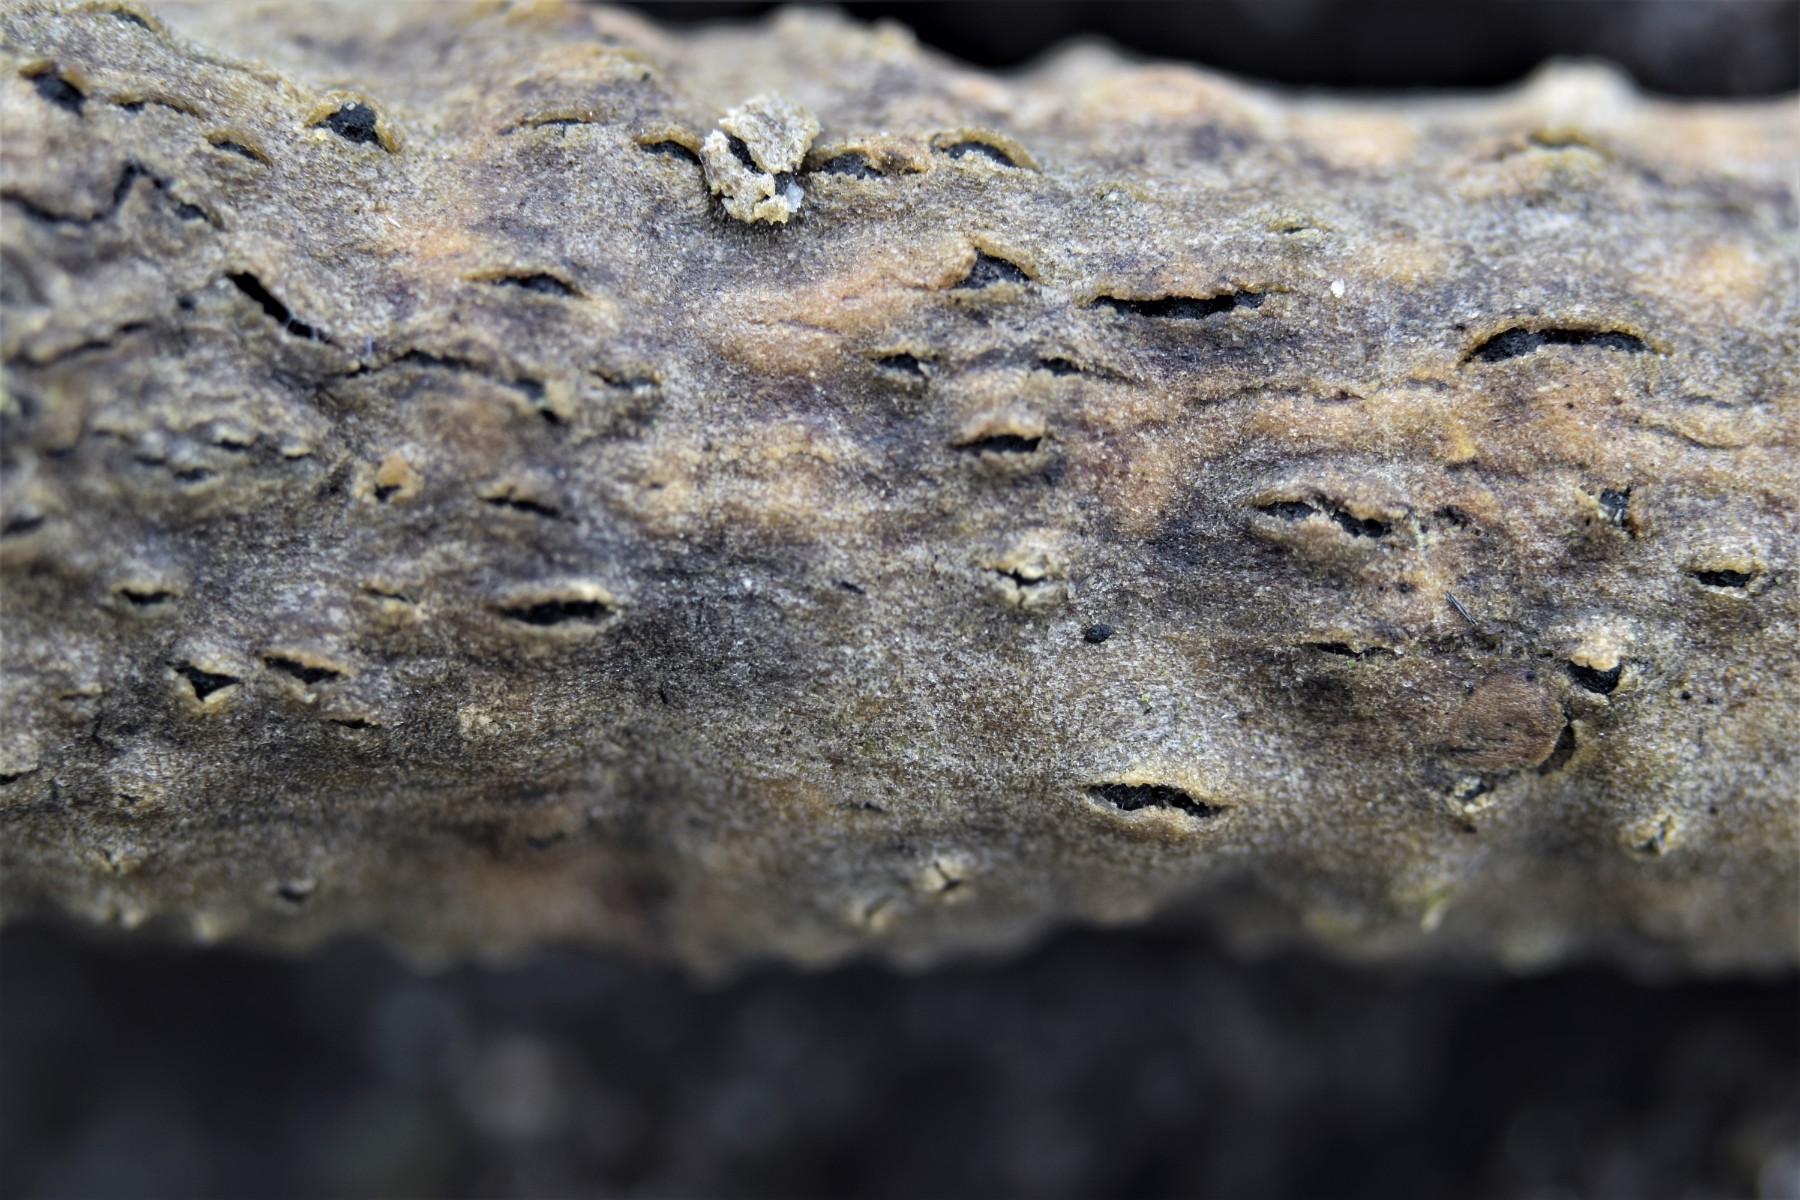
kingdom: Fungi
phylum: Ascomycota
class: Sordariomycetes
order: Diaporthales
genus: Botryodiplodia
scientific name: Botryodiplodia fraxini
